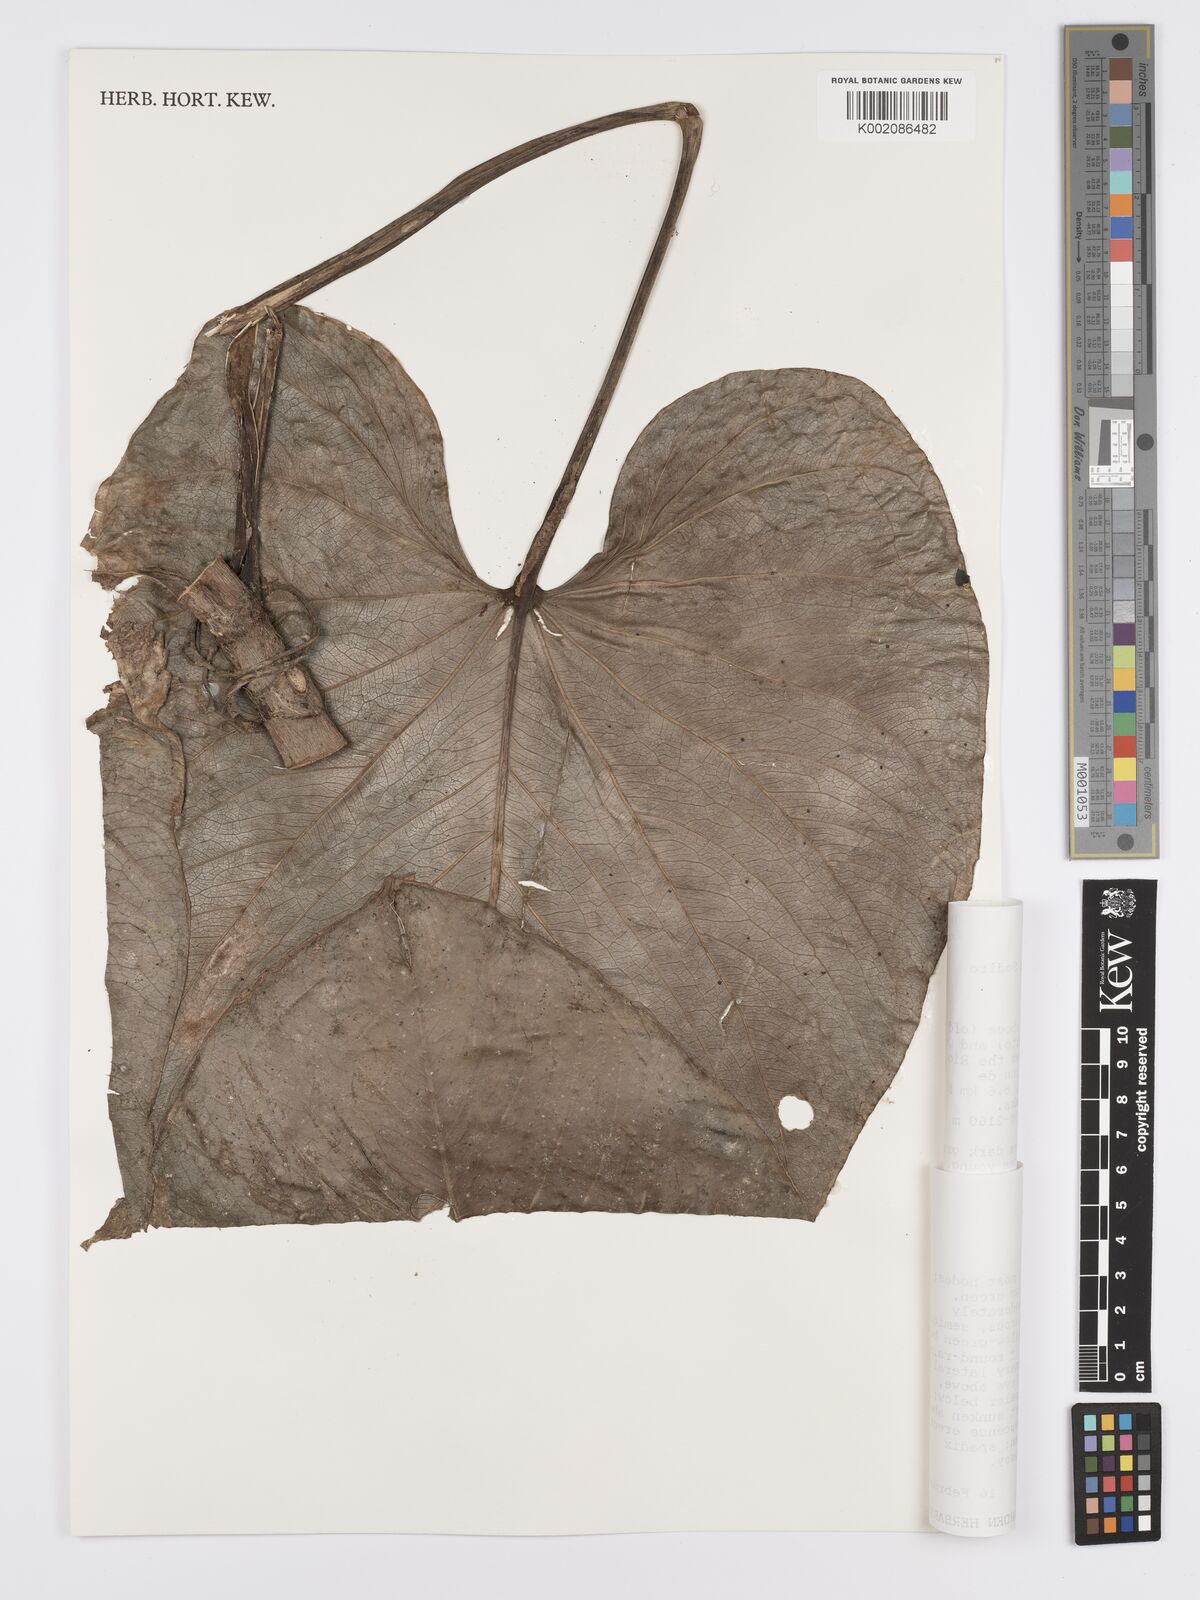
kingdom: Plantae
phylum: Tracheophyta
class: Liliopsida
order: Alismatales
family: Araceae
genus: Anthurium
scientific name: Anthurium nigrescens
